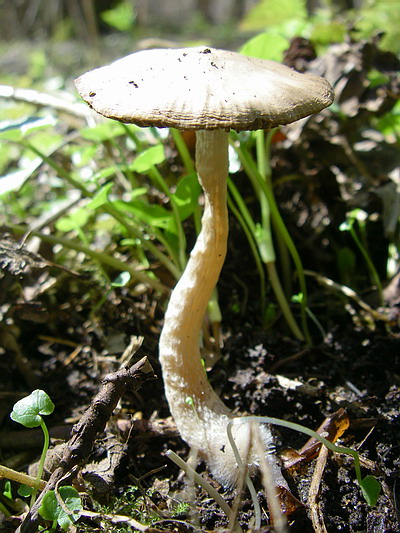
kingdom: Fungi
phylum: Basidiomycota
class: Agaricomycetes
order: Agaricales
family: Psathyrellaceae
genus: Psathyrella
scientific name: Psathyrella spadiceogrisea
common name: gråbrun mørkhat
